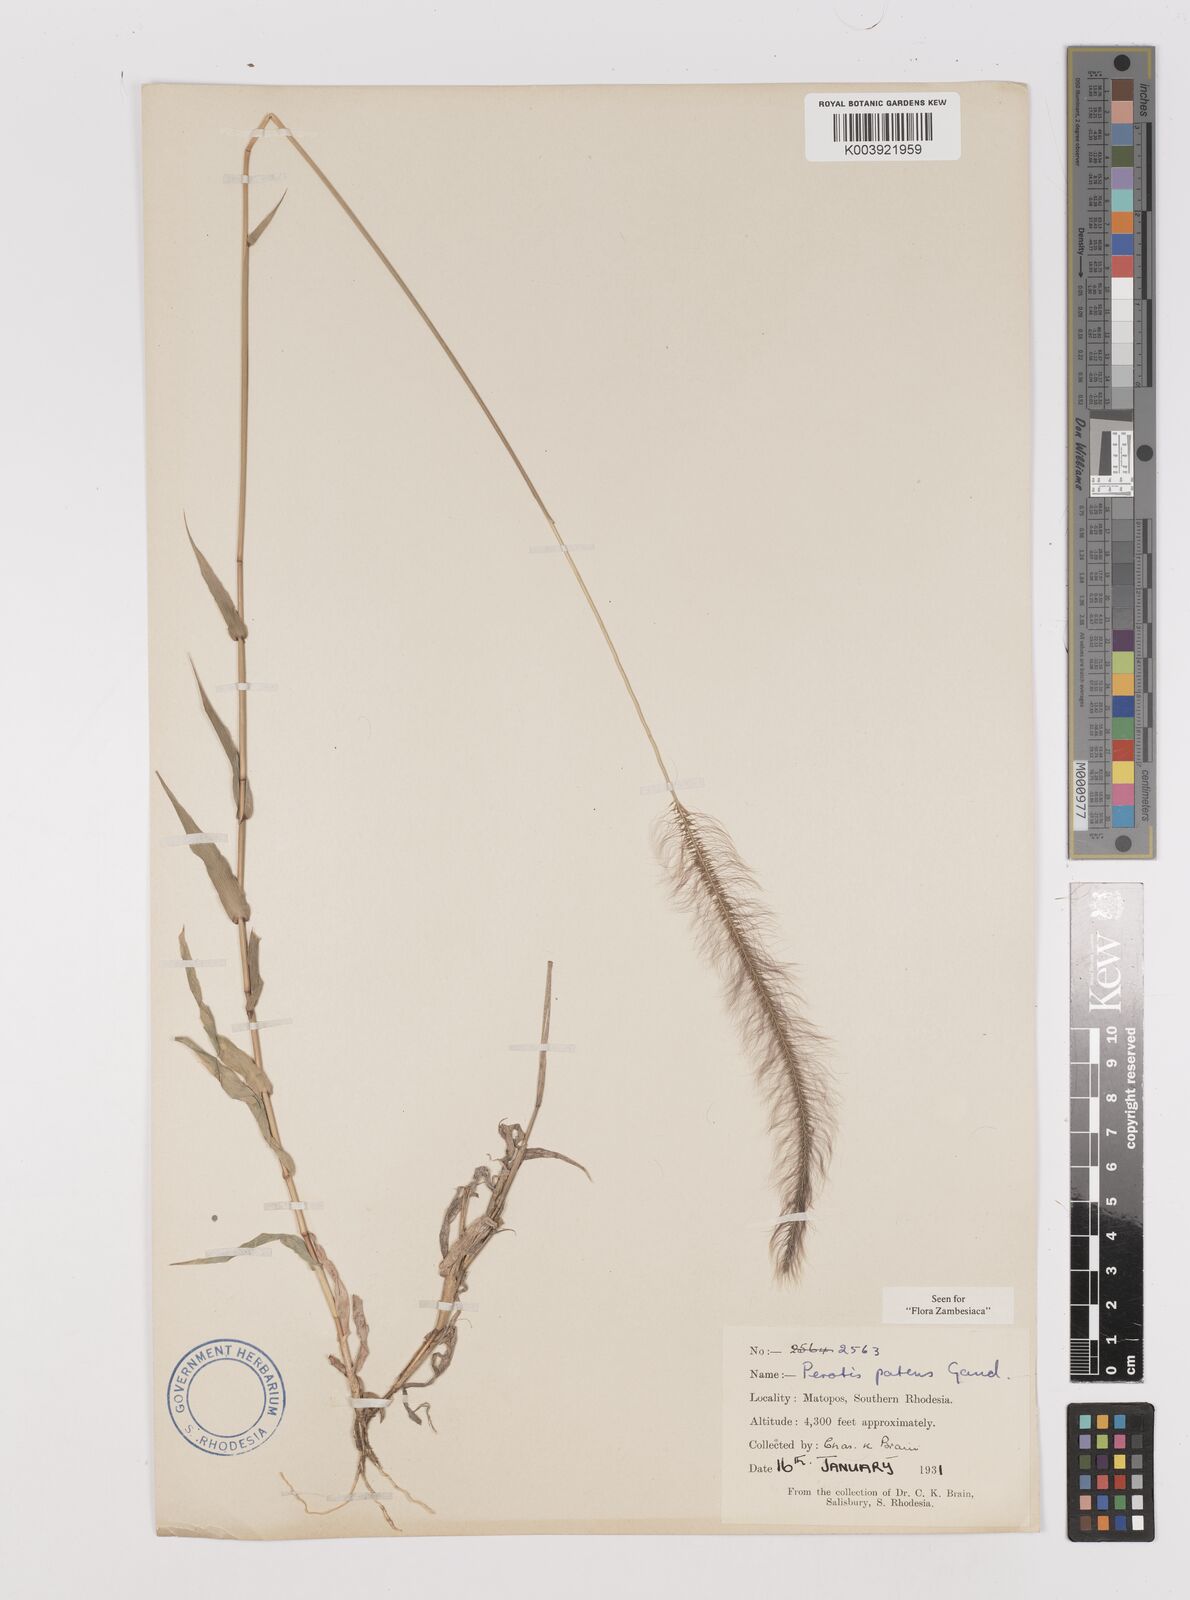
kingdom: Plantae
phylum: Tracheophyta
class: Liliopsida
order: Poales
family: Poaceae
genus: Perotis
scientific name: Perotis patens
